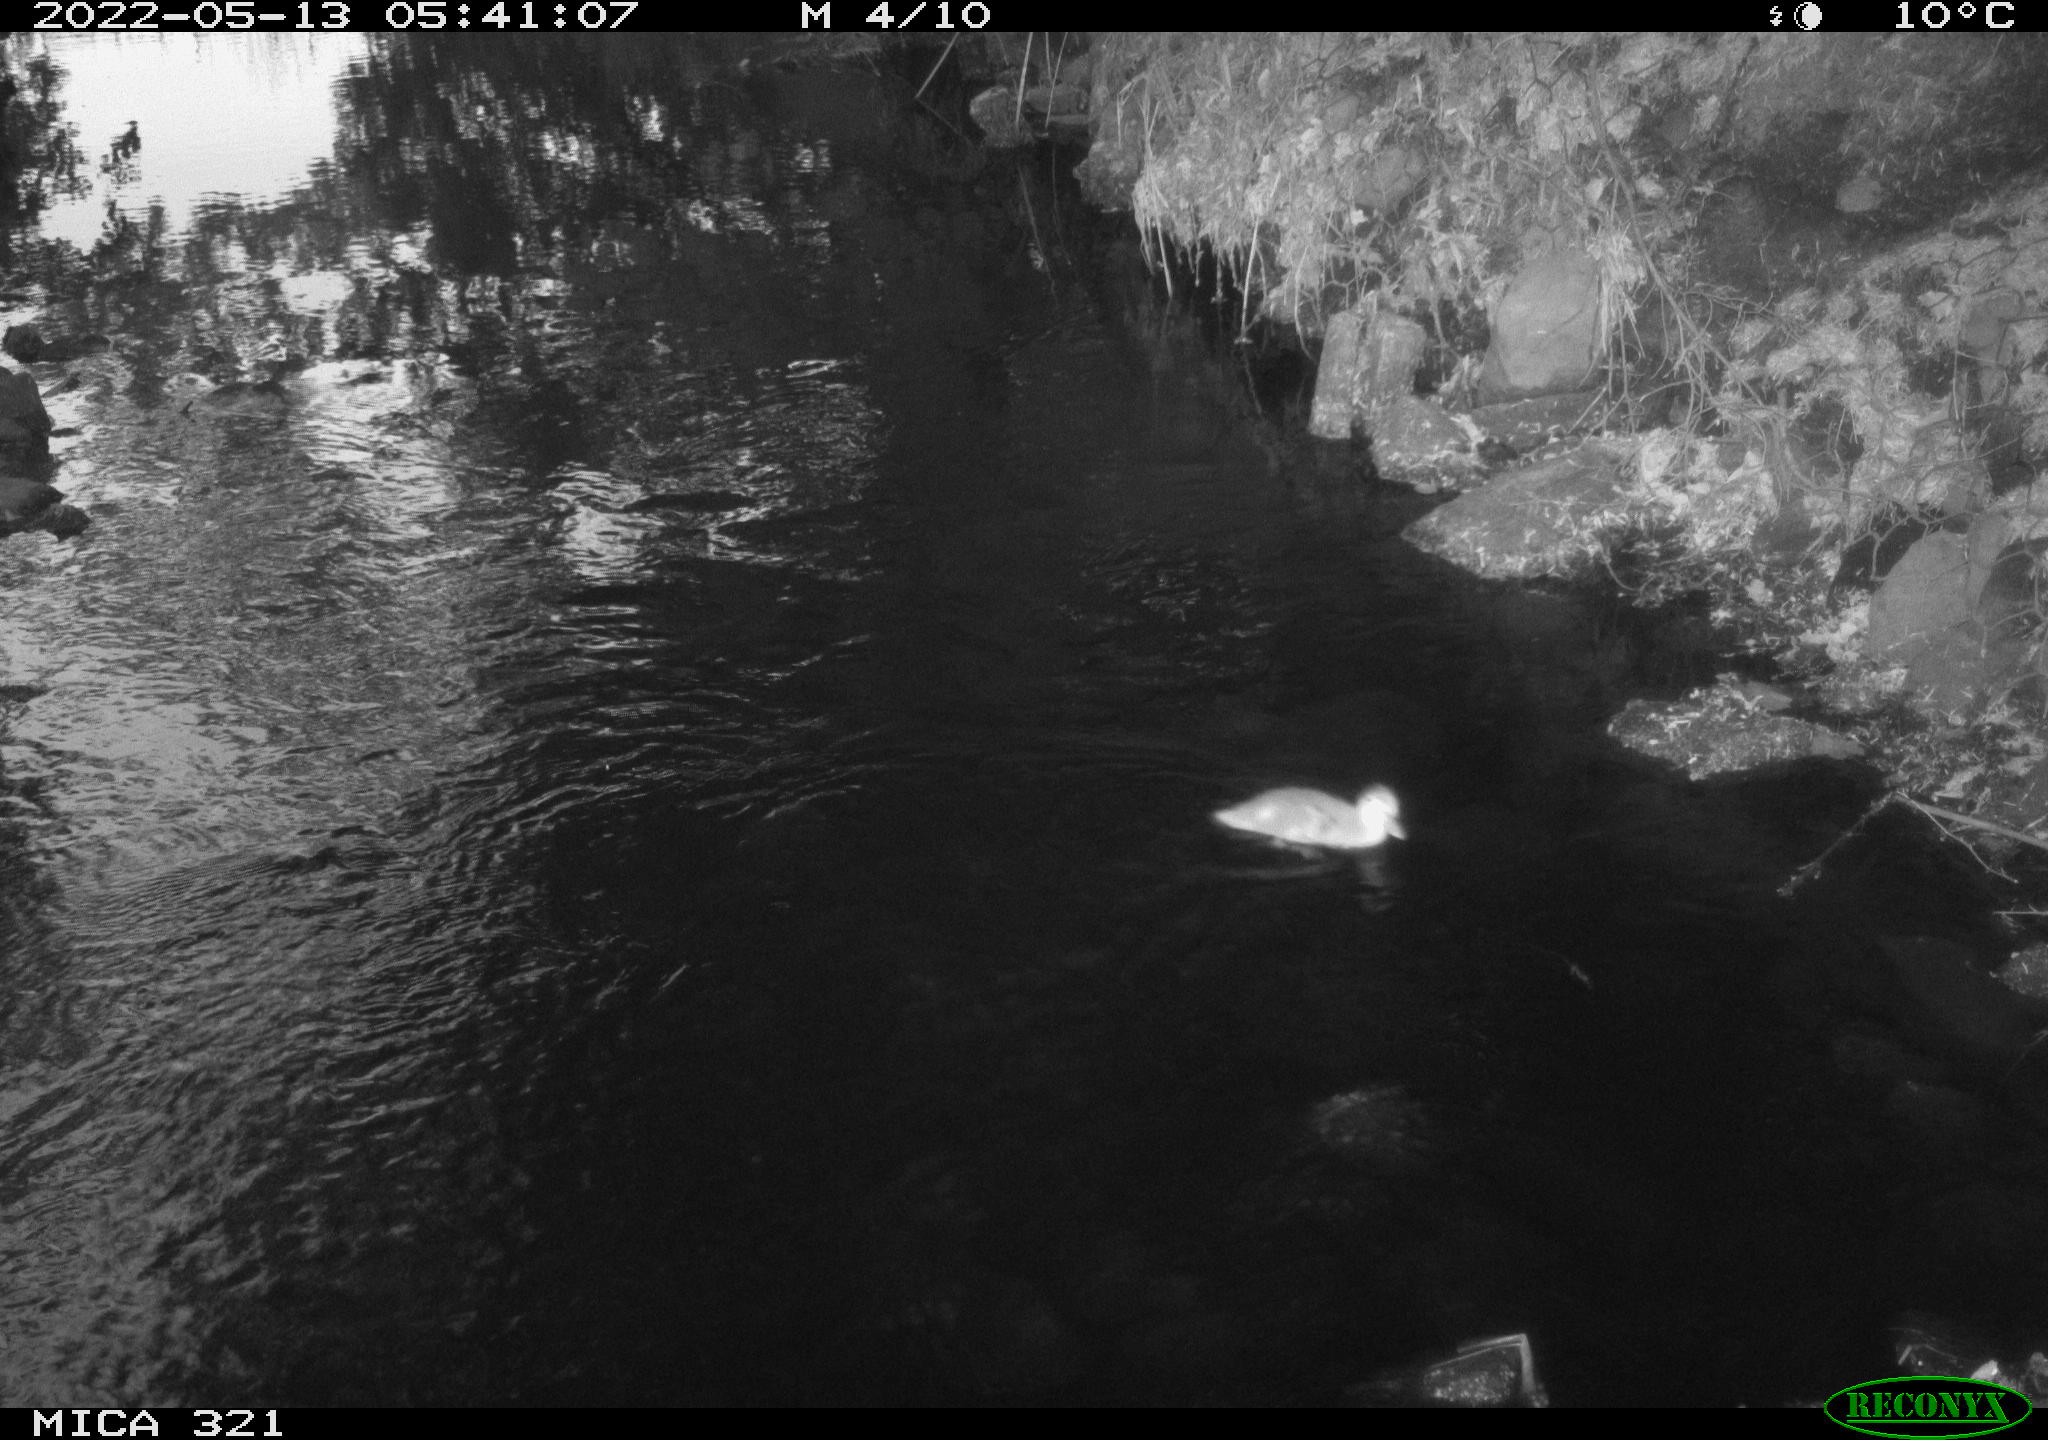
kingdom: Animalia
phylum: Chordata
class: Aves
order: Anseriformes
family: Anatidae
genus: Anas
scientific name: Anas platyrhynchos
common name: Mallard
